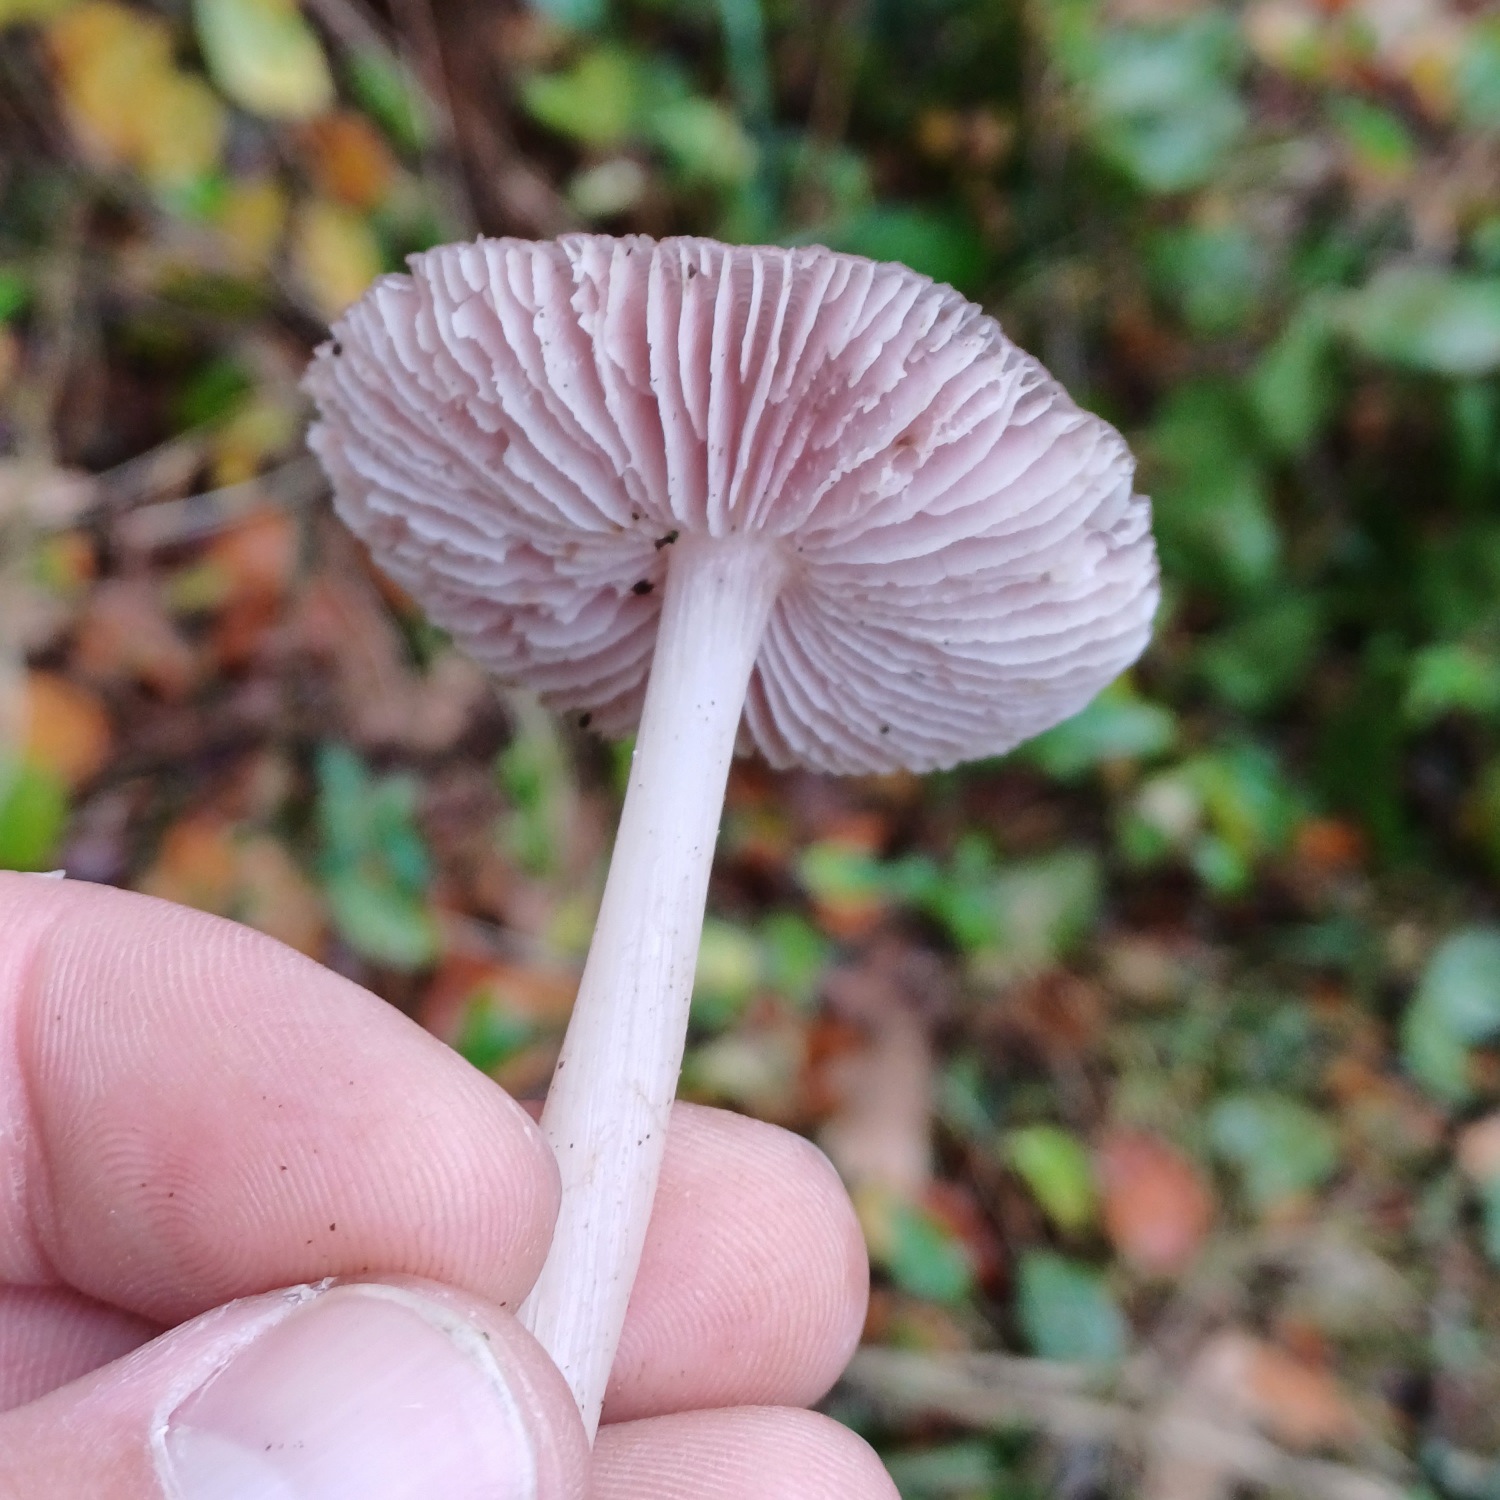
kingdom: Fungi
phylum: Basidiomycota
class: Agaricomycetes
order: Agaricales
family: Mycenaceae
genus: Mycena
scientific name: Mycena rosea
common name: Rosa huesvamp
